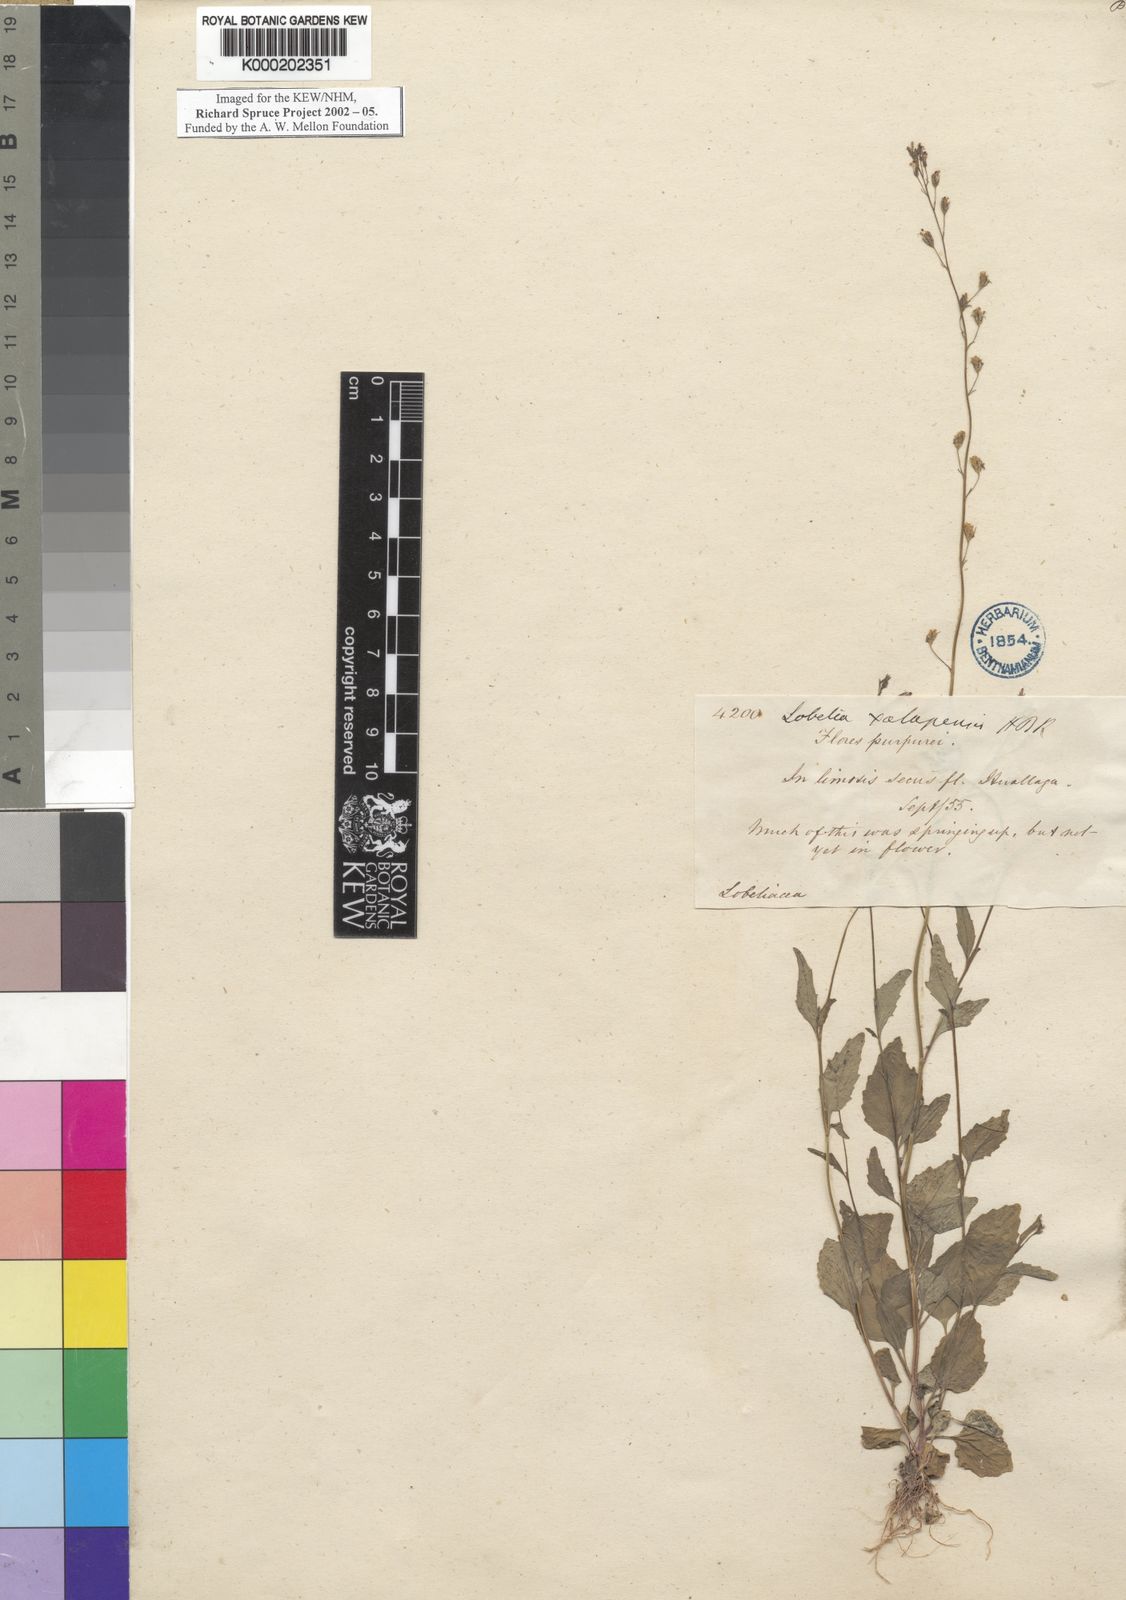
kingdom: Plantae
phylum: Tracheophyta
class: Magnoliopsida
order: Asterales
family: Campanulaceae
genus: Lobelia
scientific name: Lobelia xalapensis
